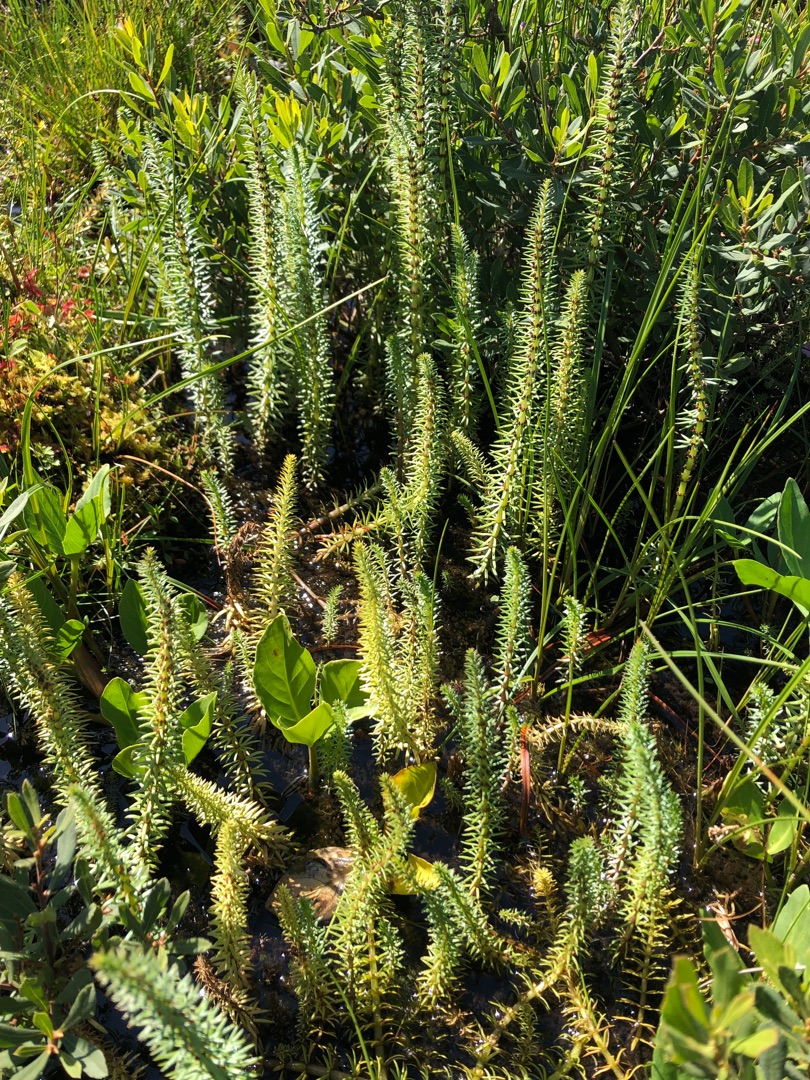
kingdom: Plantae
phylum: Tracheophyta
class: Magnoliopsida
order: Lamiales
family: Plantaginaceae
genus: Hippuris
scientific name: Hippuris vulgaris
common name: Vandspir
